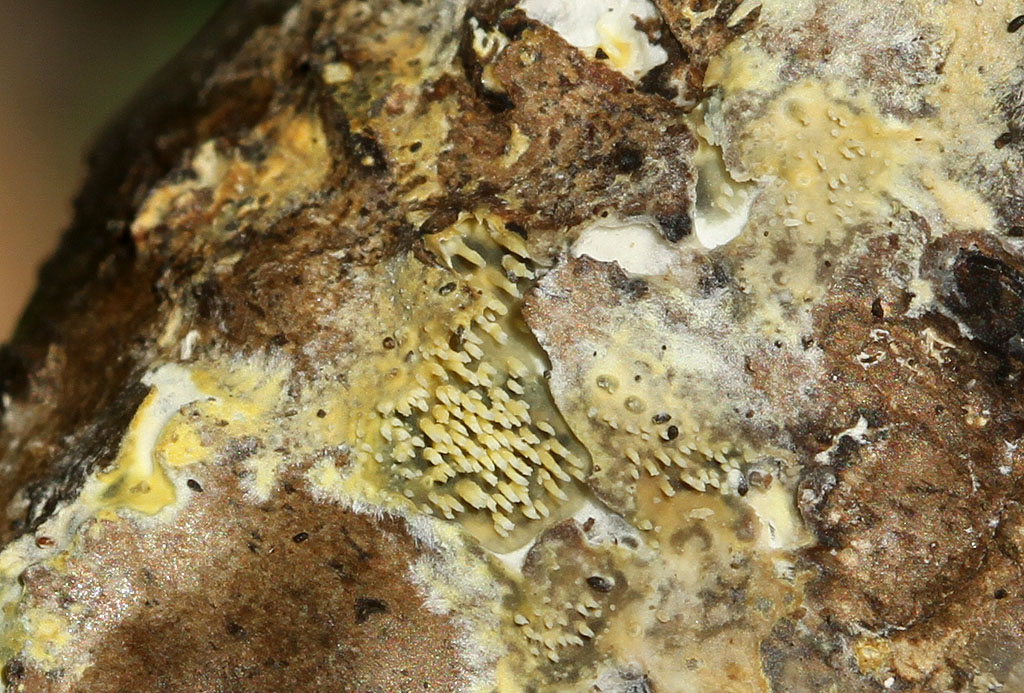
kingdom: Fungi
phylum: Basidiomycota
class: Agaricomycetes
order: Polyporales
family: Meruliaceae
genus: Mycoacia
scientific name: Mycoacia uda
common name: citrongul vokspig
